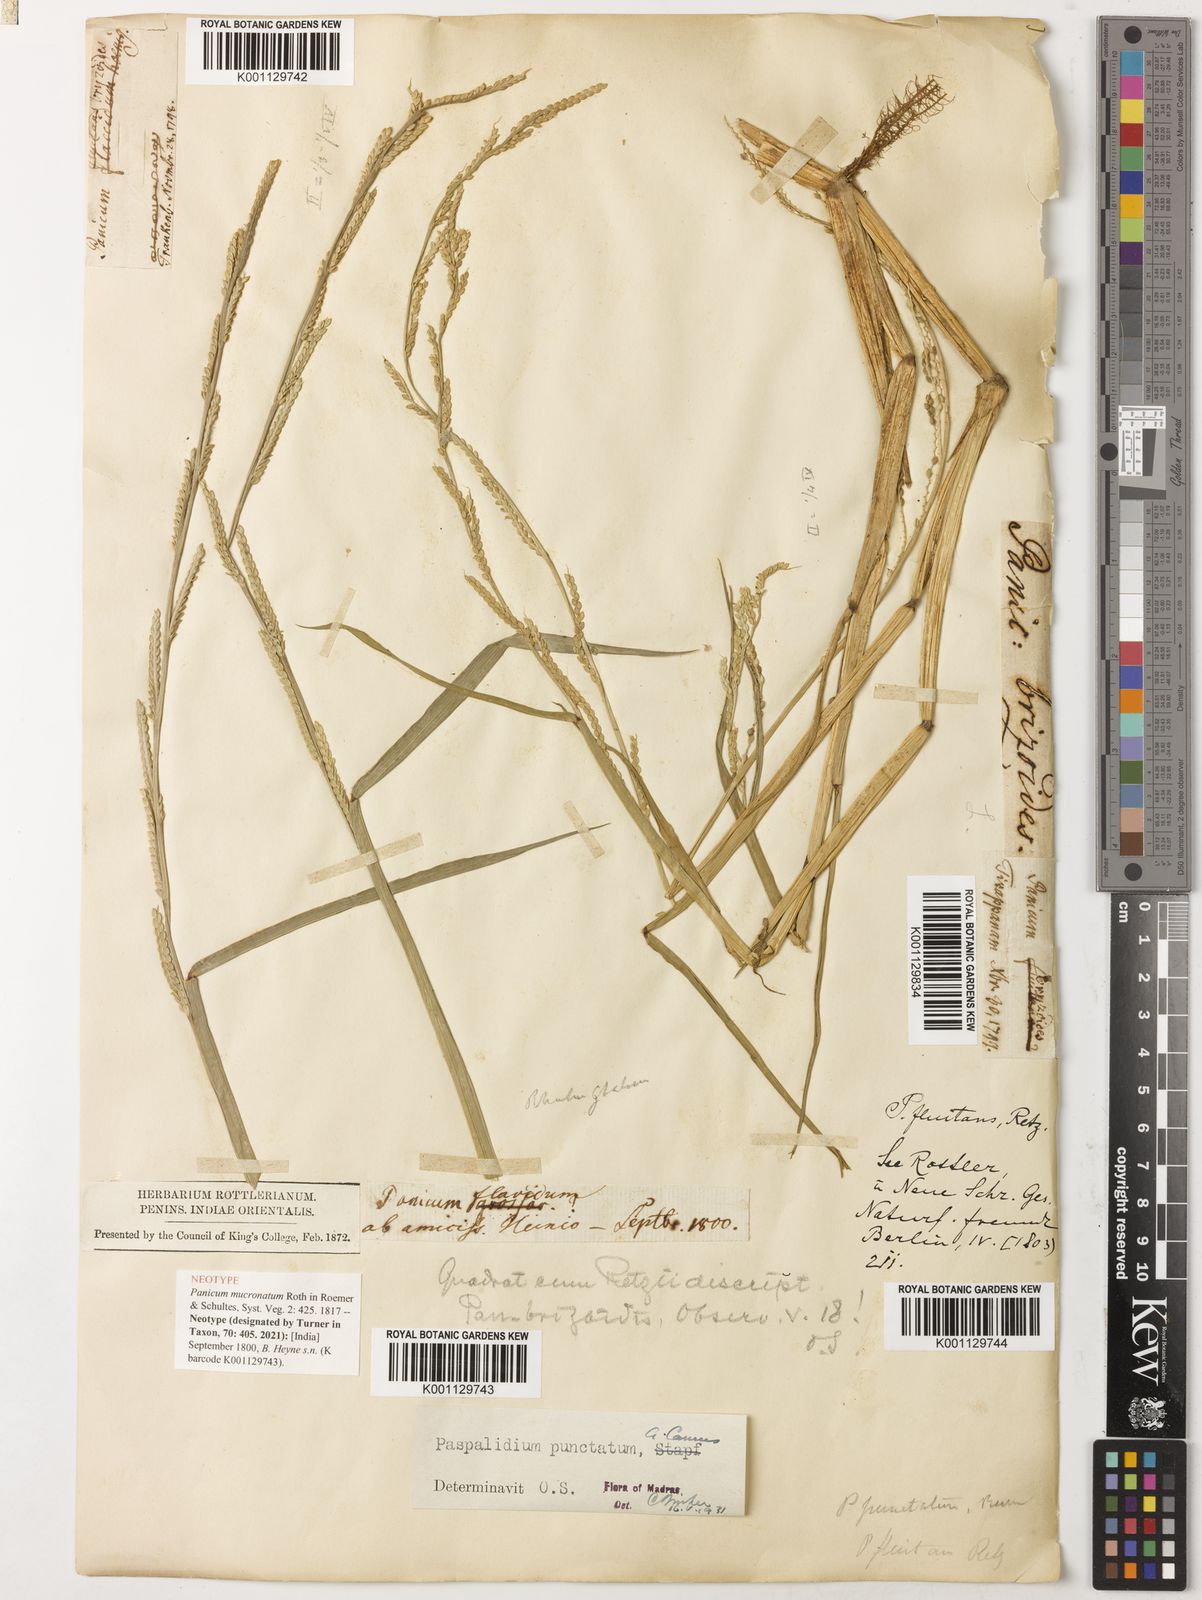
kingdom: Plantae
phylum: Tracheophyta
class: Liliopsida
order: Poales
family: Poaceae
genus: Setaria
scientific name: Setaria punctata
